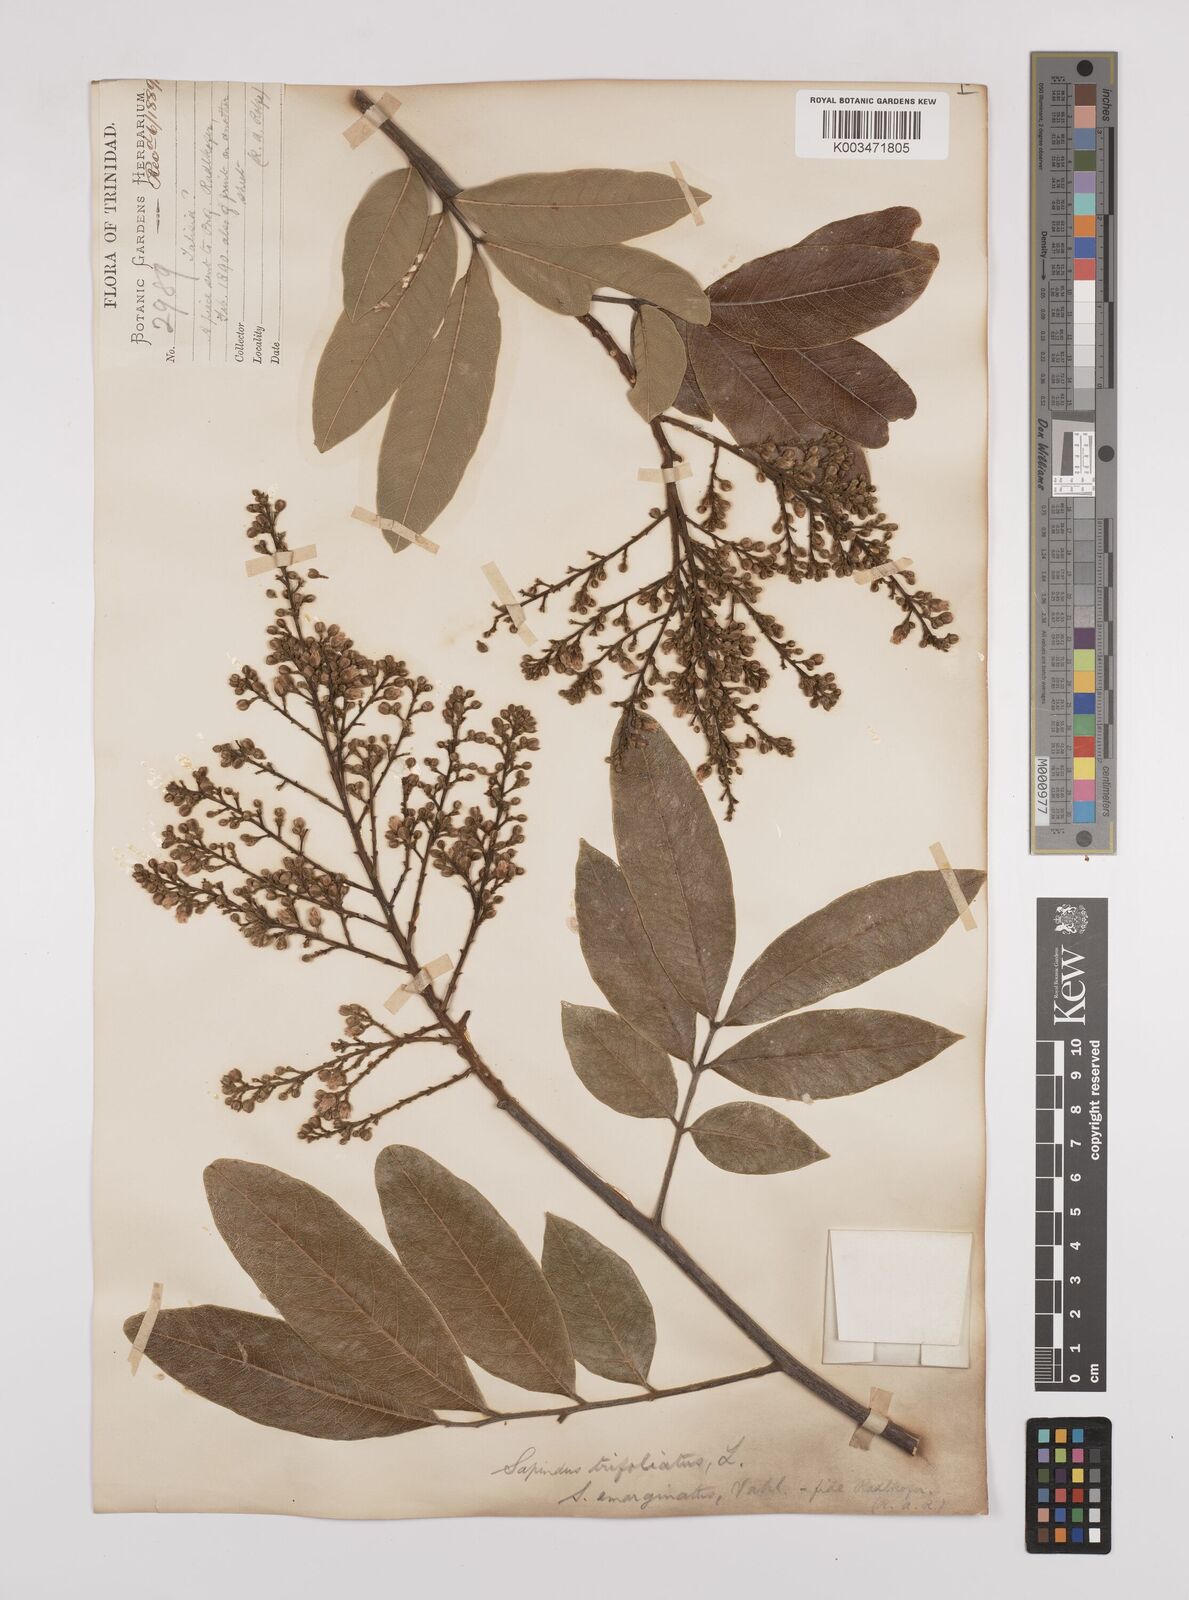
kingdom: Plantae
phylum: Tracheophyta
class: Magnoliopsida
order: Sapindales
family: Sapindaceae
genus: Sapindus
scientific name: Sapindus trifoliatus
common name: Three-leaf soapberry
